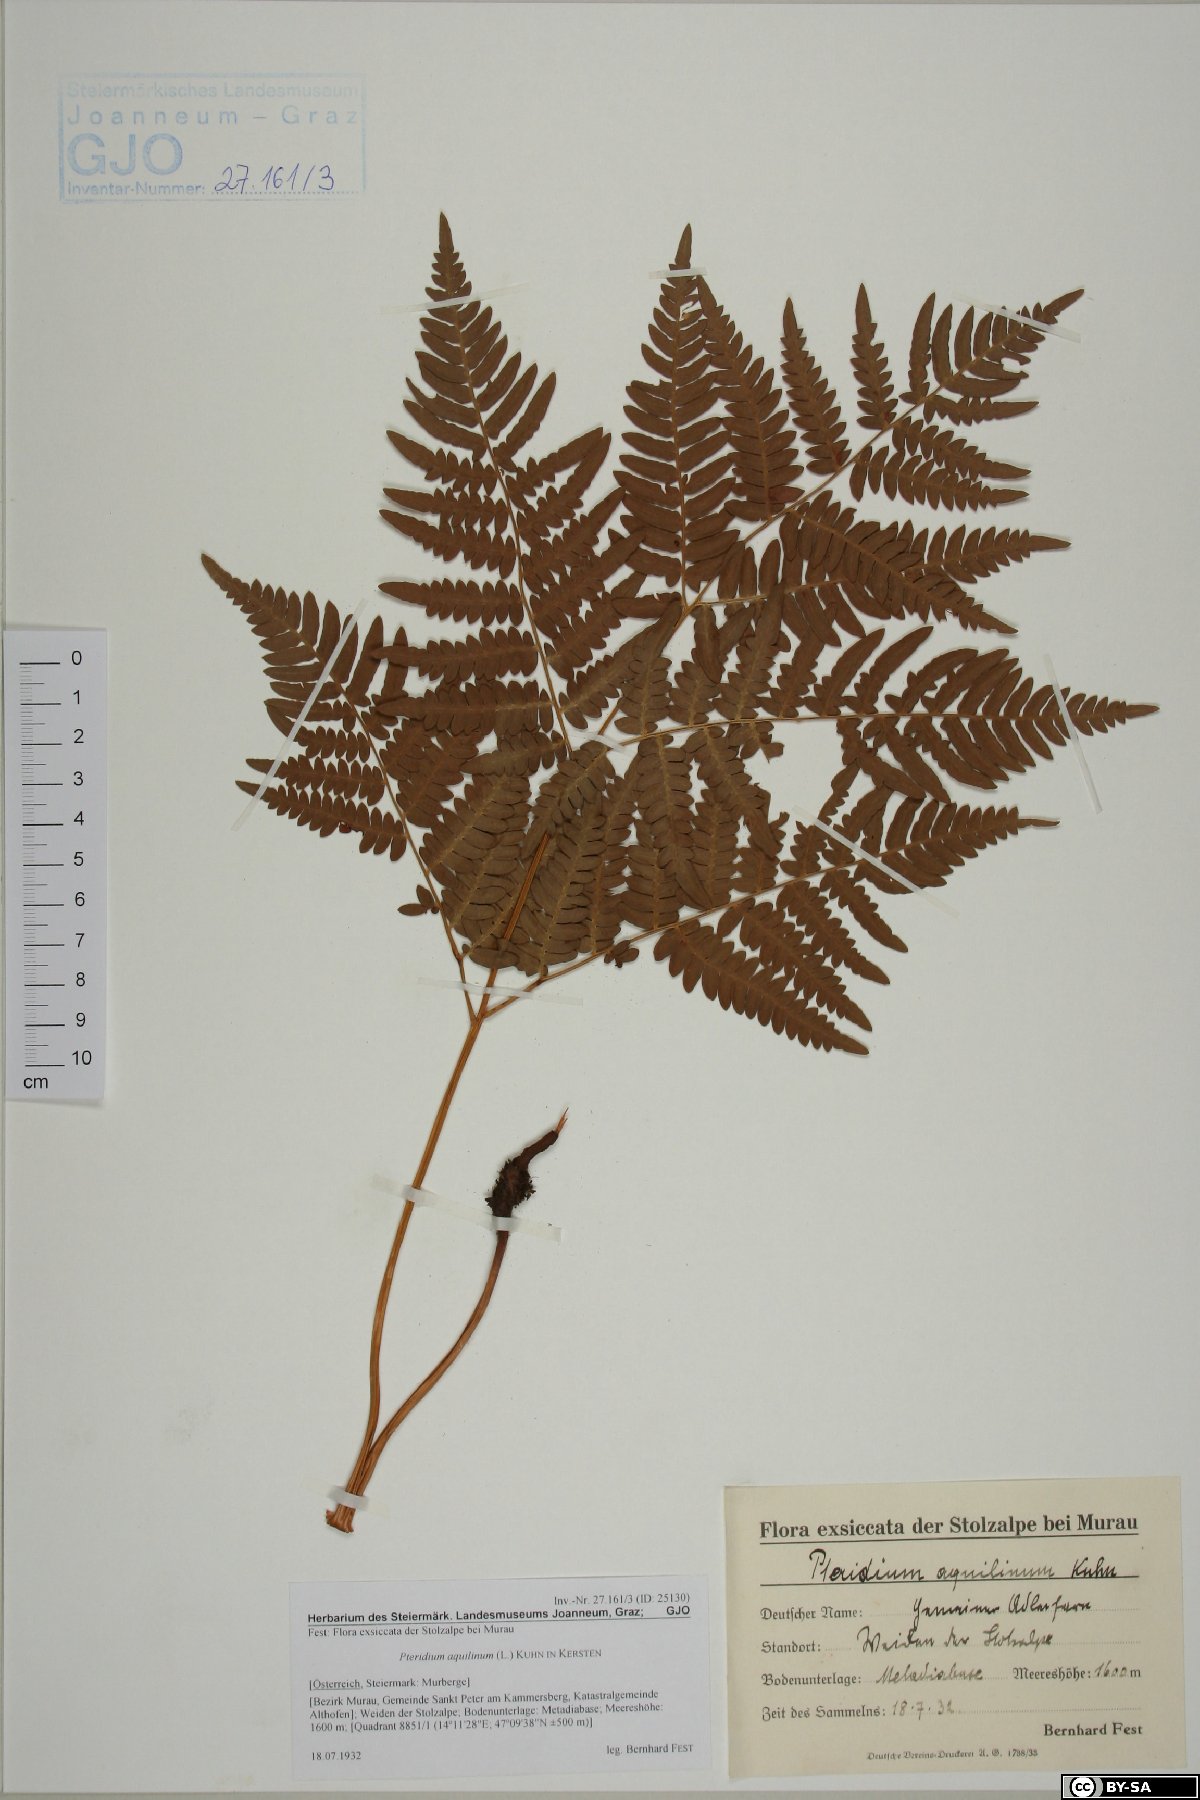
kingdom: Plantae
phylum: Tracheophyta
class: Polypodiopsida
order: Polypodiales
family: Dennstaedtiaceae
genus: Pteridium
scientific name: Pteridium aquilinum
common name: Bracken
